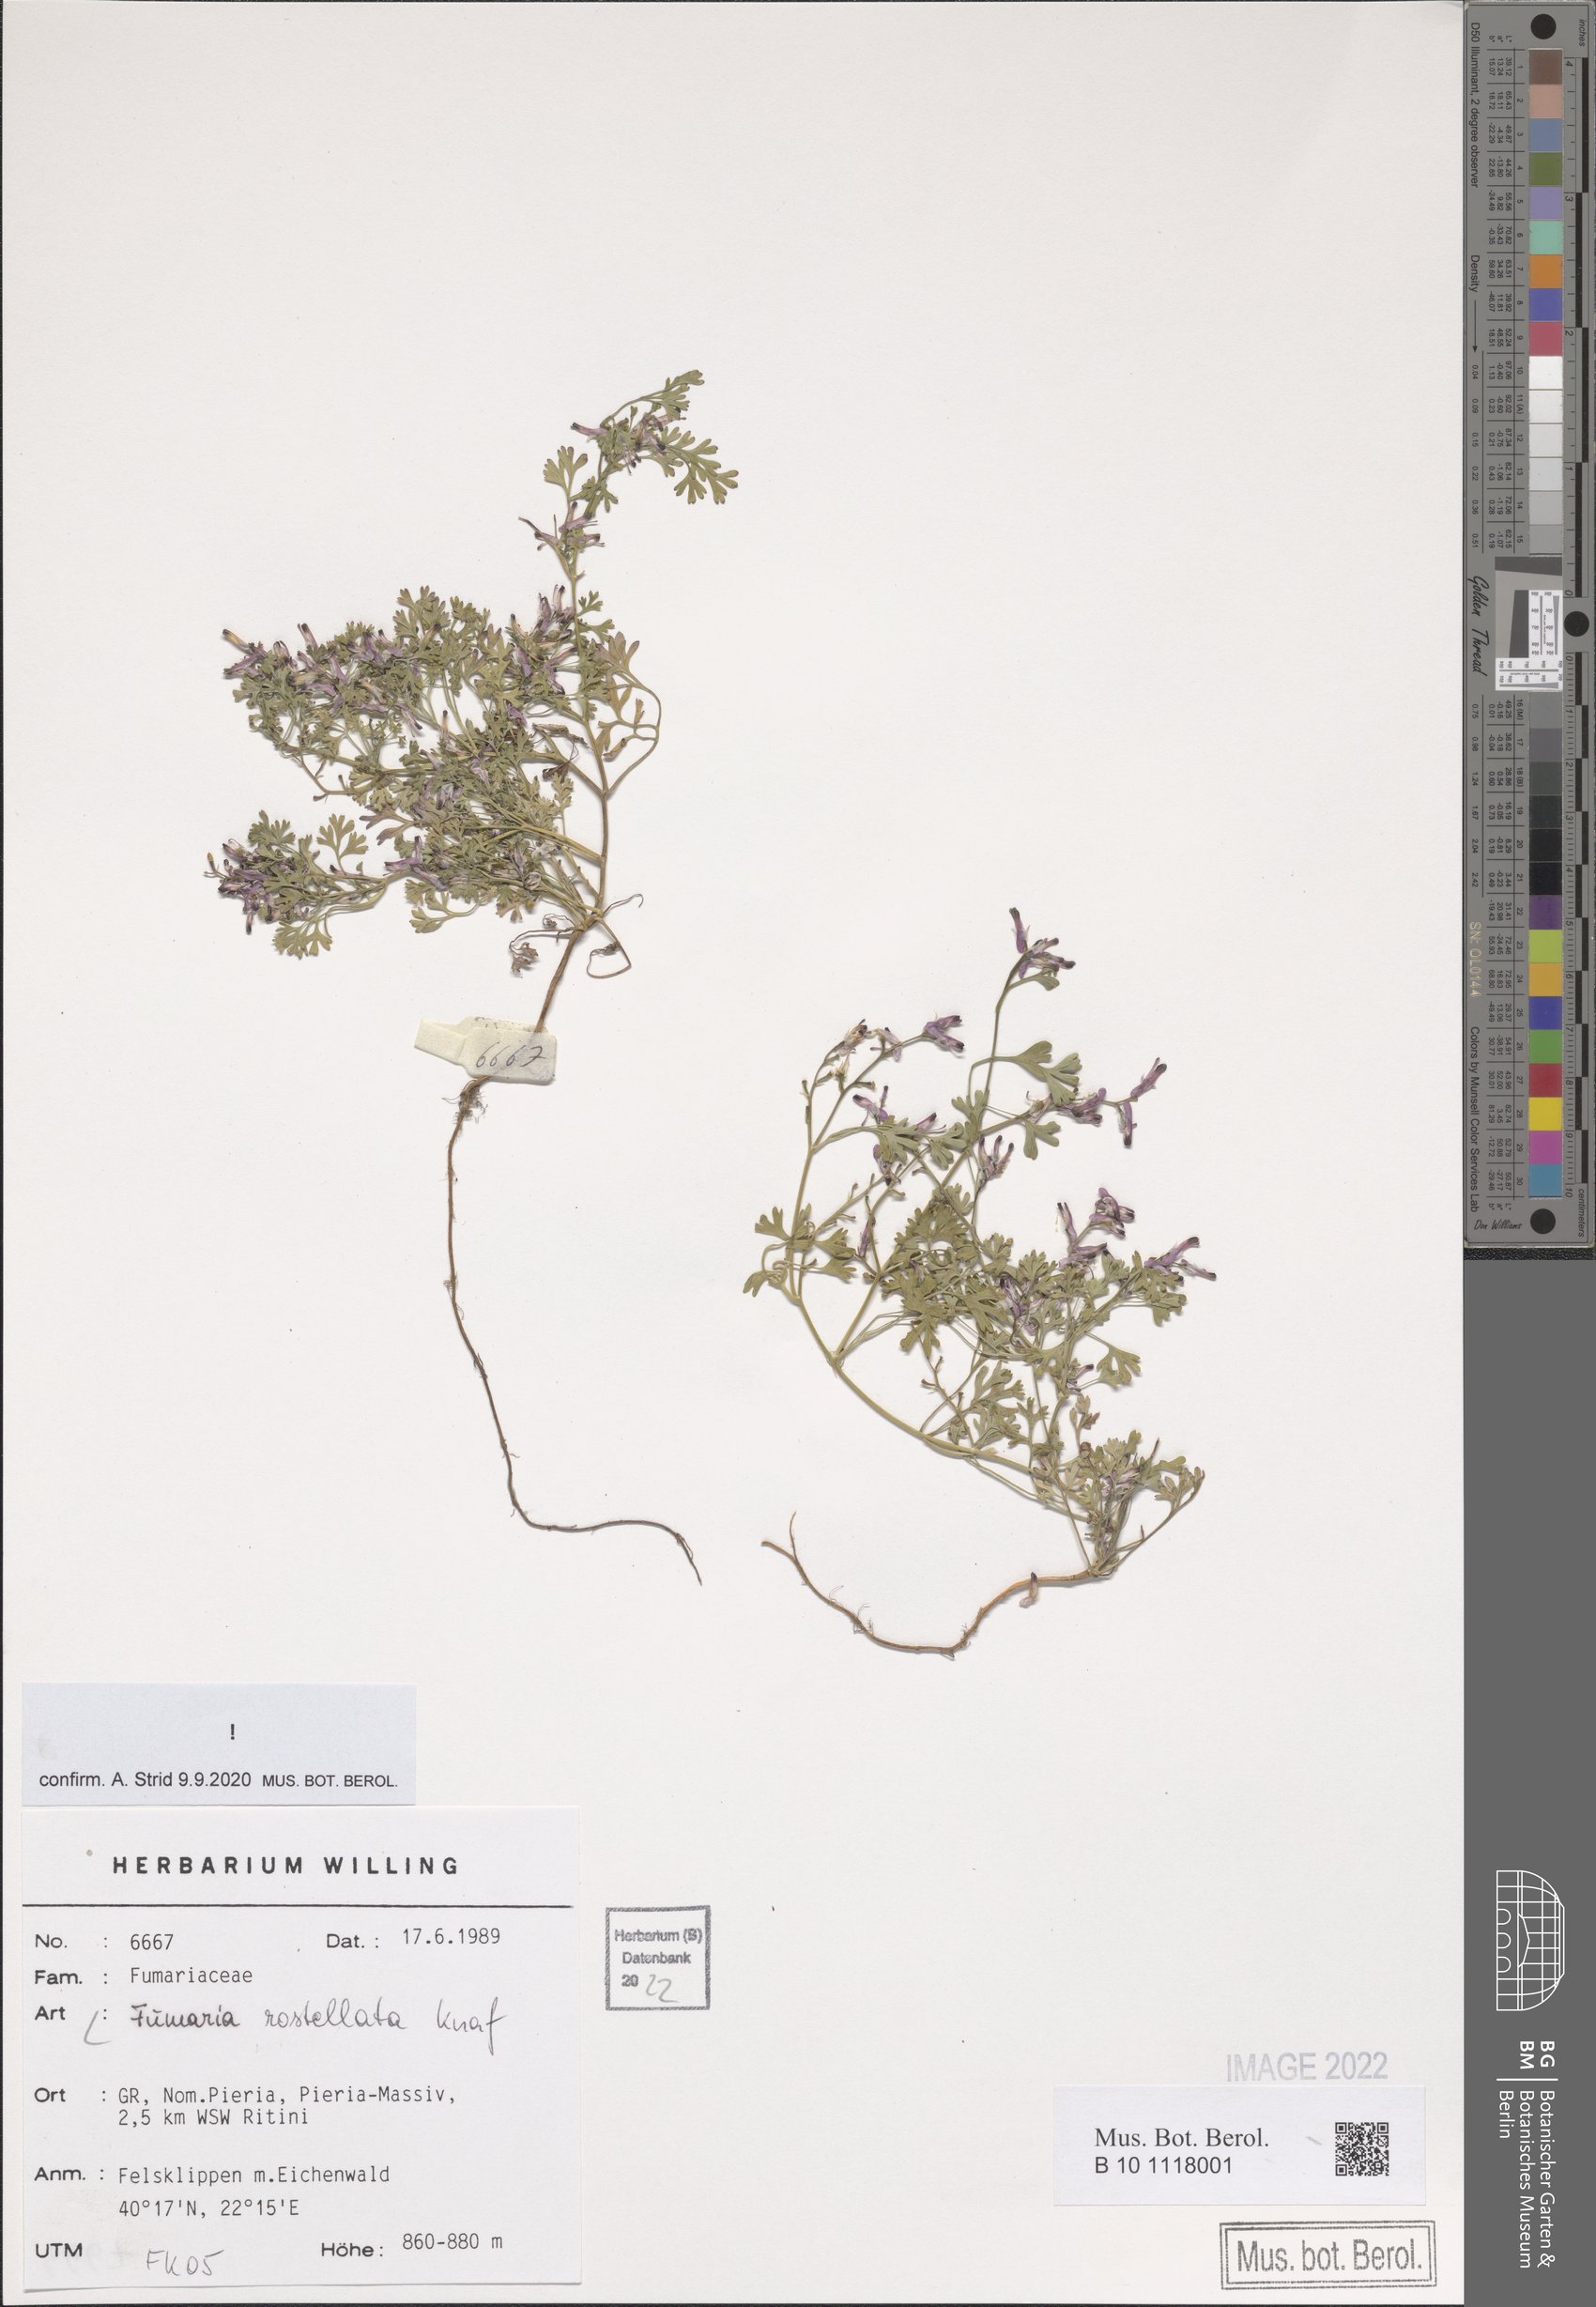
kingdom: Plantae
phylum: Tracheophyta
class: Magnoliopsida
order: Ranunculales
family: Papaveraceae
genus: Fumaria
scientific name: Fumaria rostellata
